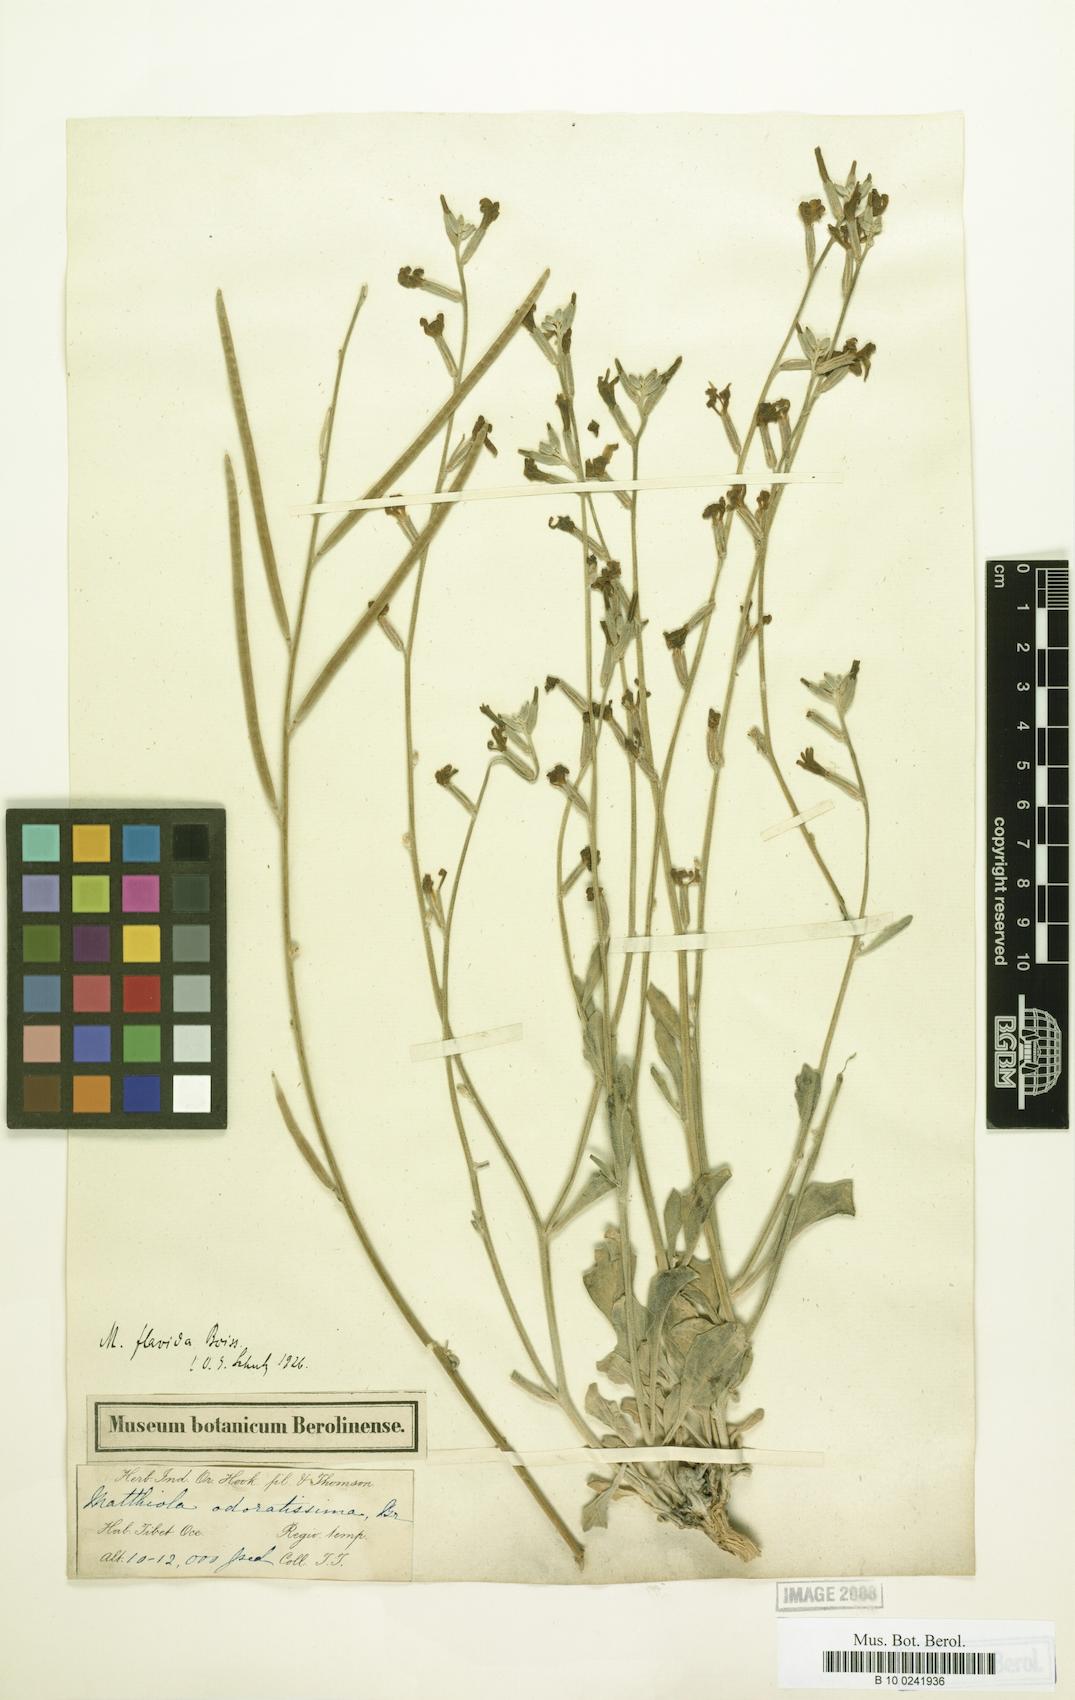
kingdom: Plantae
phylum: Tracheophyta
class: Magnoliopsida
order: Brassicales
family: Brassicaceae
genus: Matthiola
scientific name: Matthiola flavida
